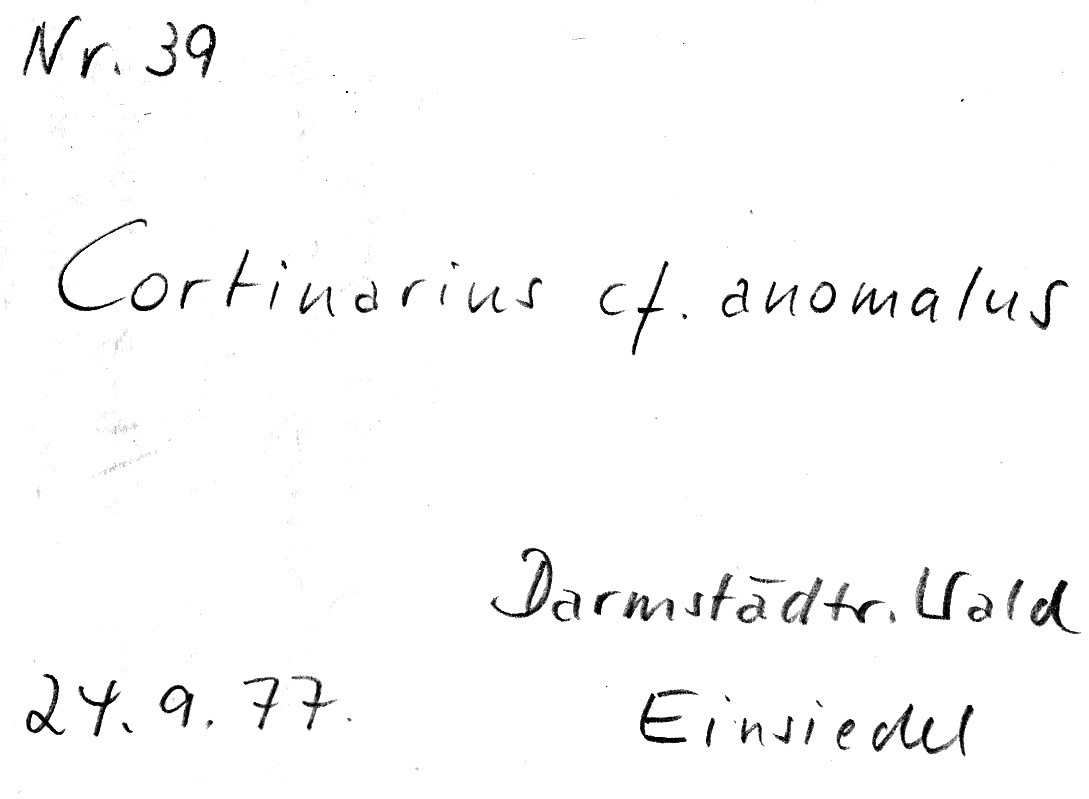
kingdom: Fungi
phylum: Basidiomycota
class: Agaricomycetes
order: Agaricales
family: Cortinariaceae
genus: Cortinarius
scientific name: Cortinarius anomalus
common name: Variable webcap
